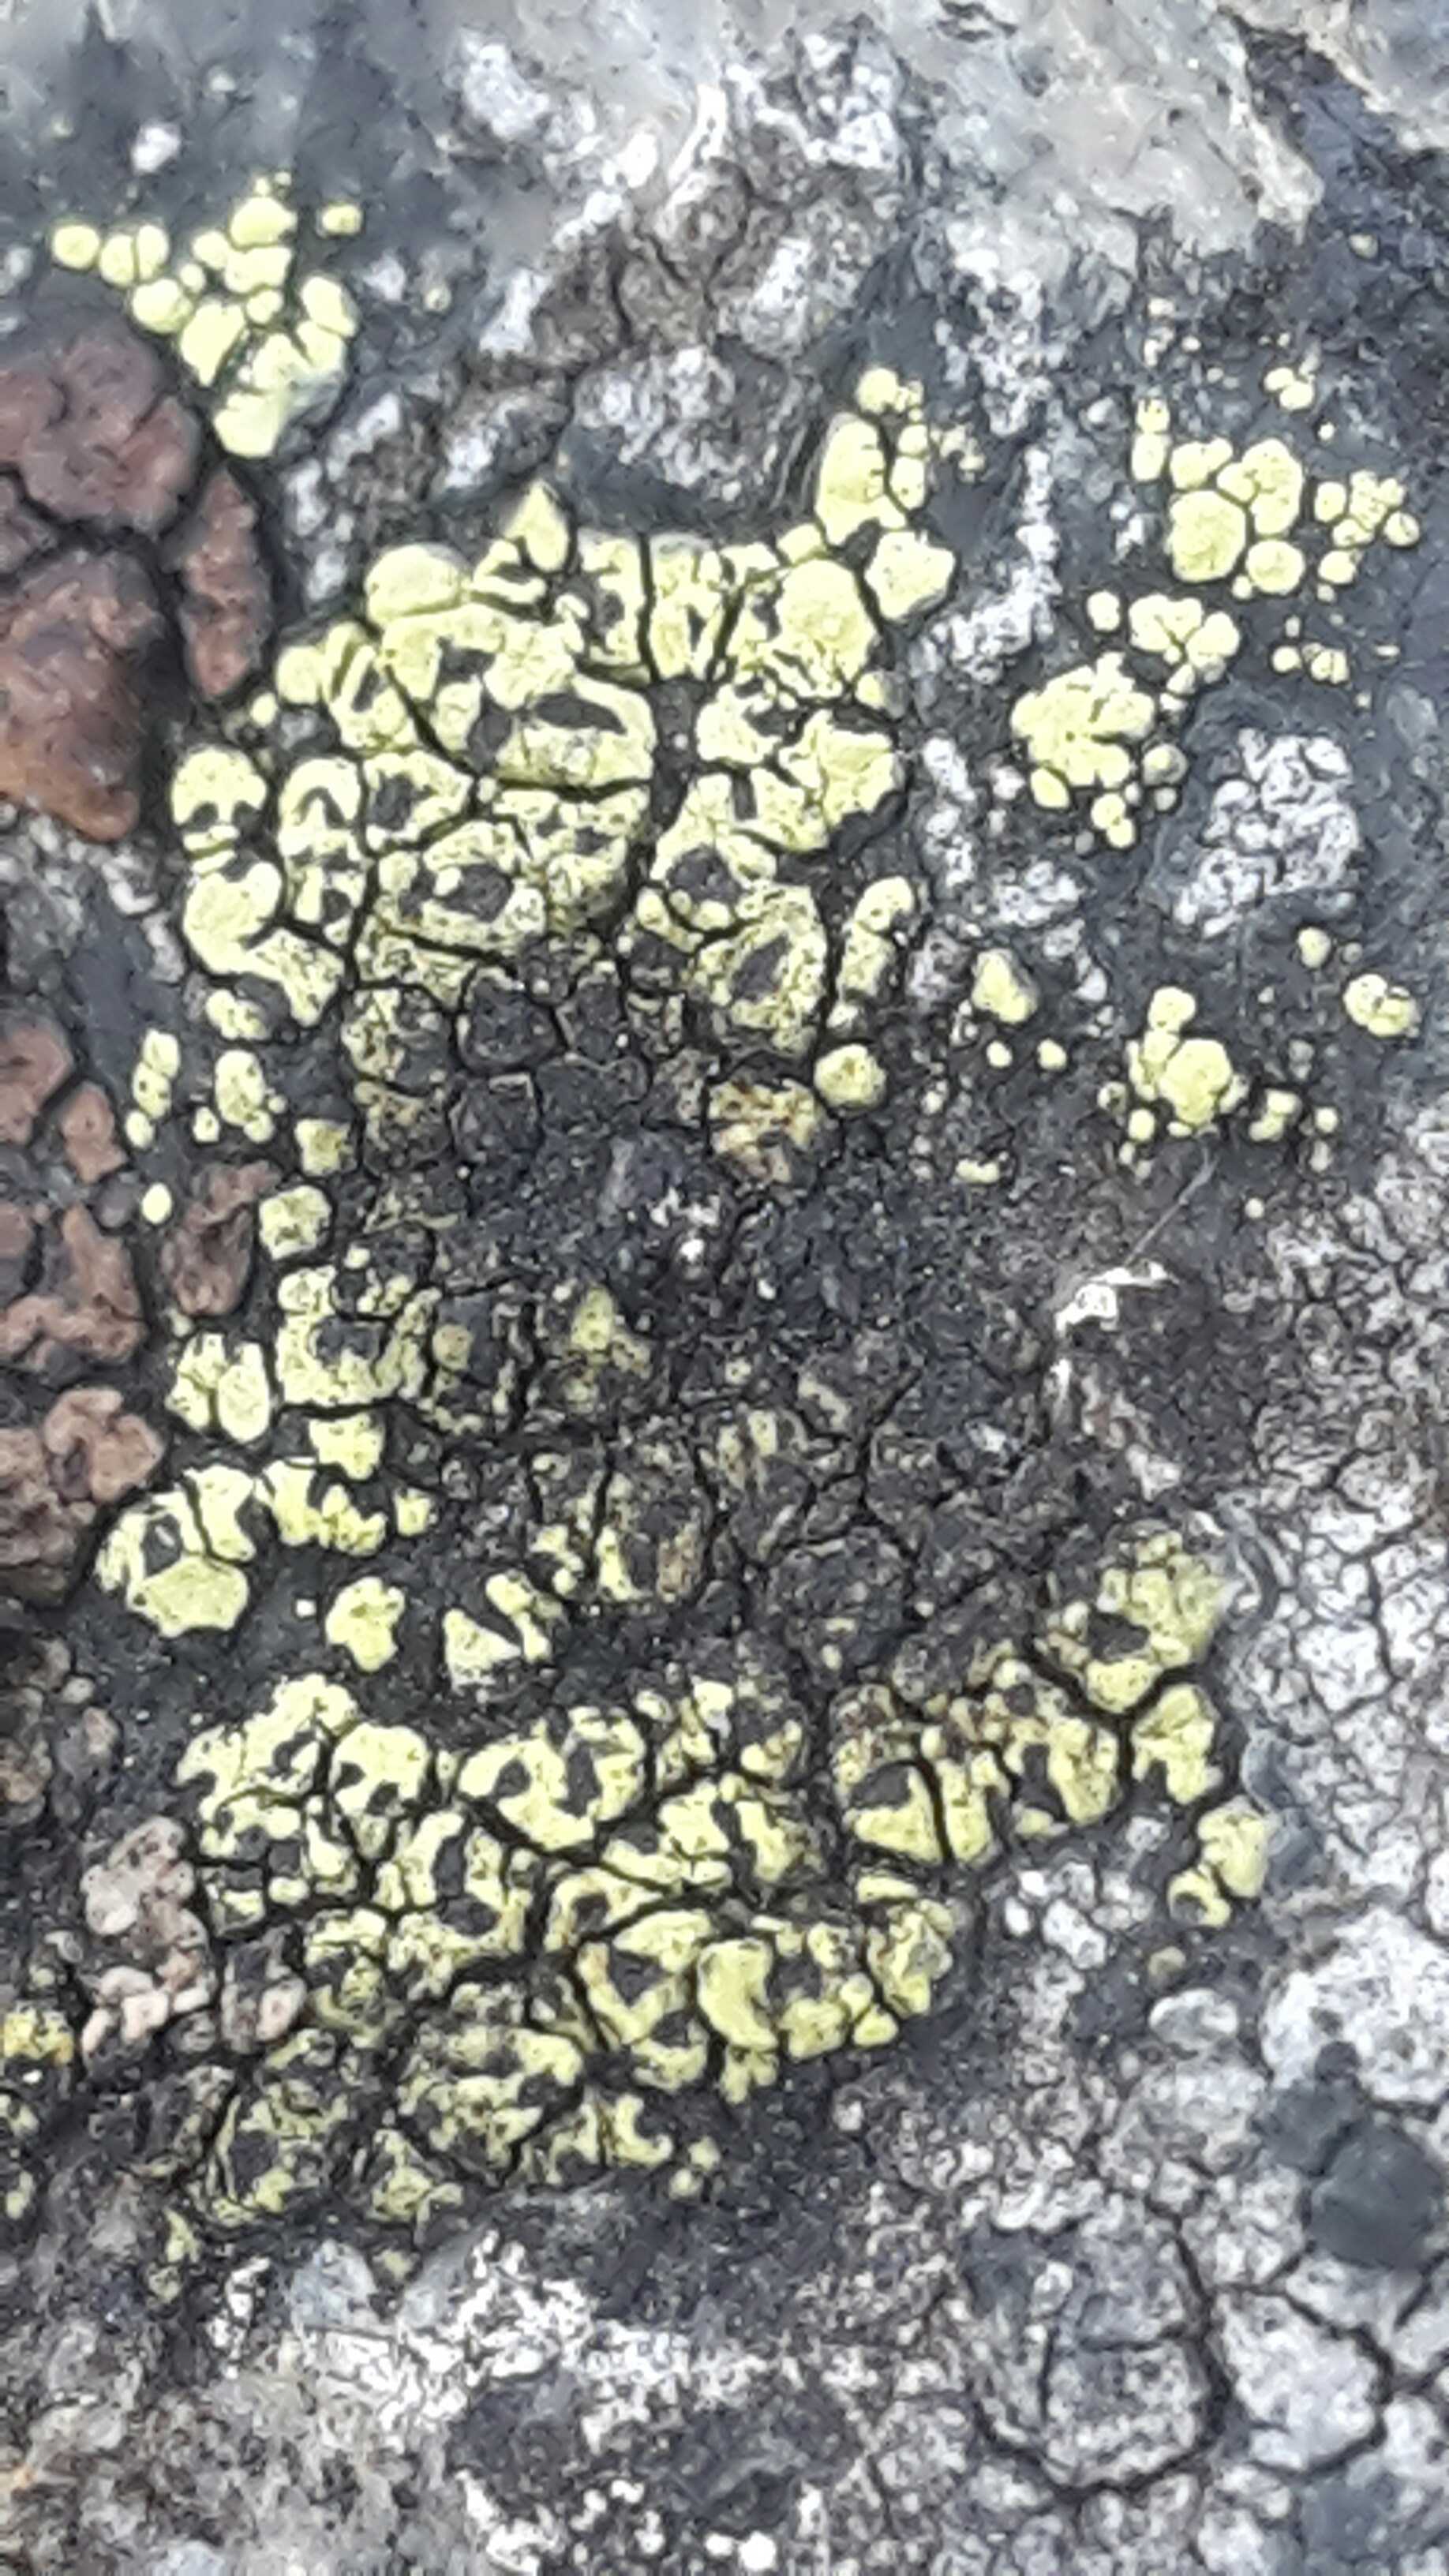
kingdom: Fungi
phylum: Ascomycota
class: Lecanoromycetes
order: Rhizocarpales
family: Rhizocarpaceae
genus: Rhizocarpon
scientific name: Rhizocarpon lecanorinum
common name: krave-landkortlav
